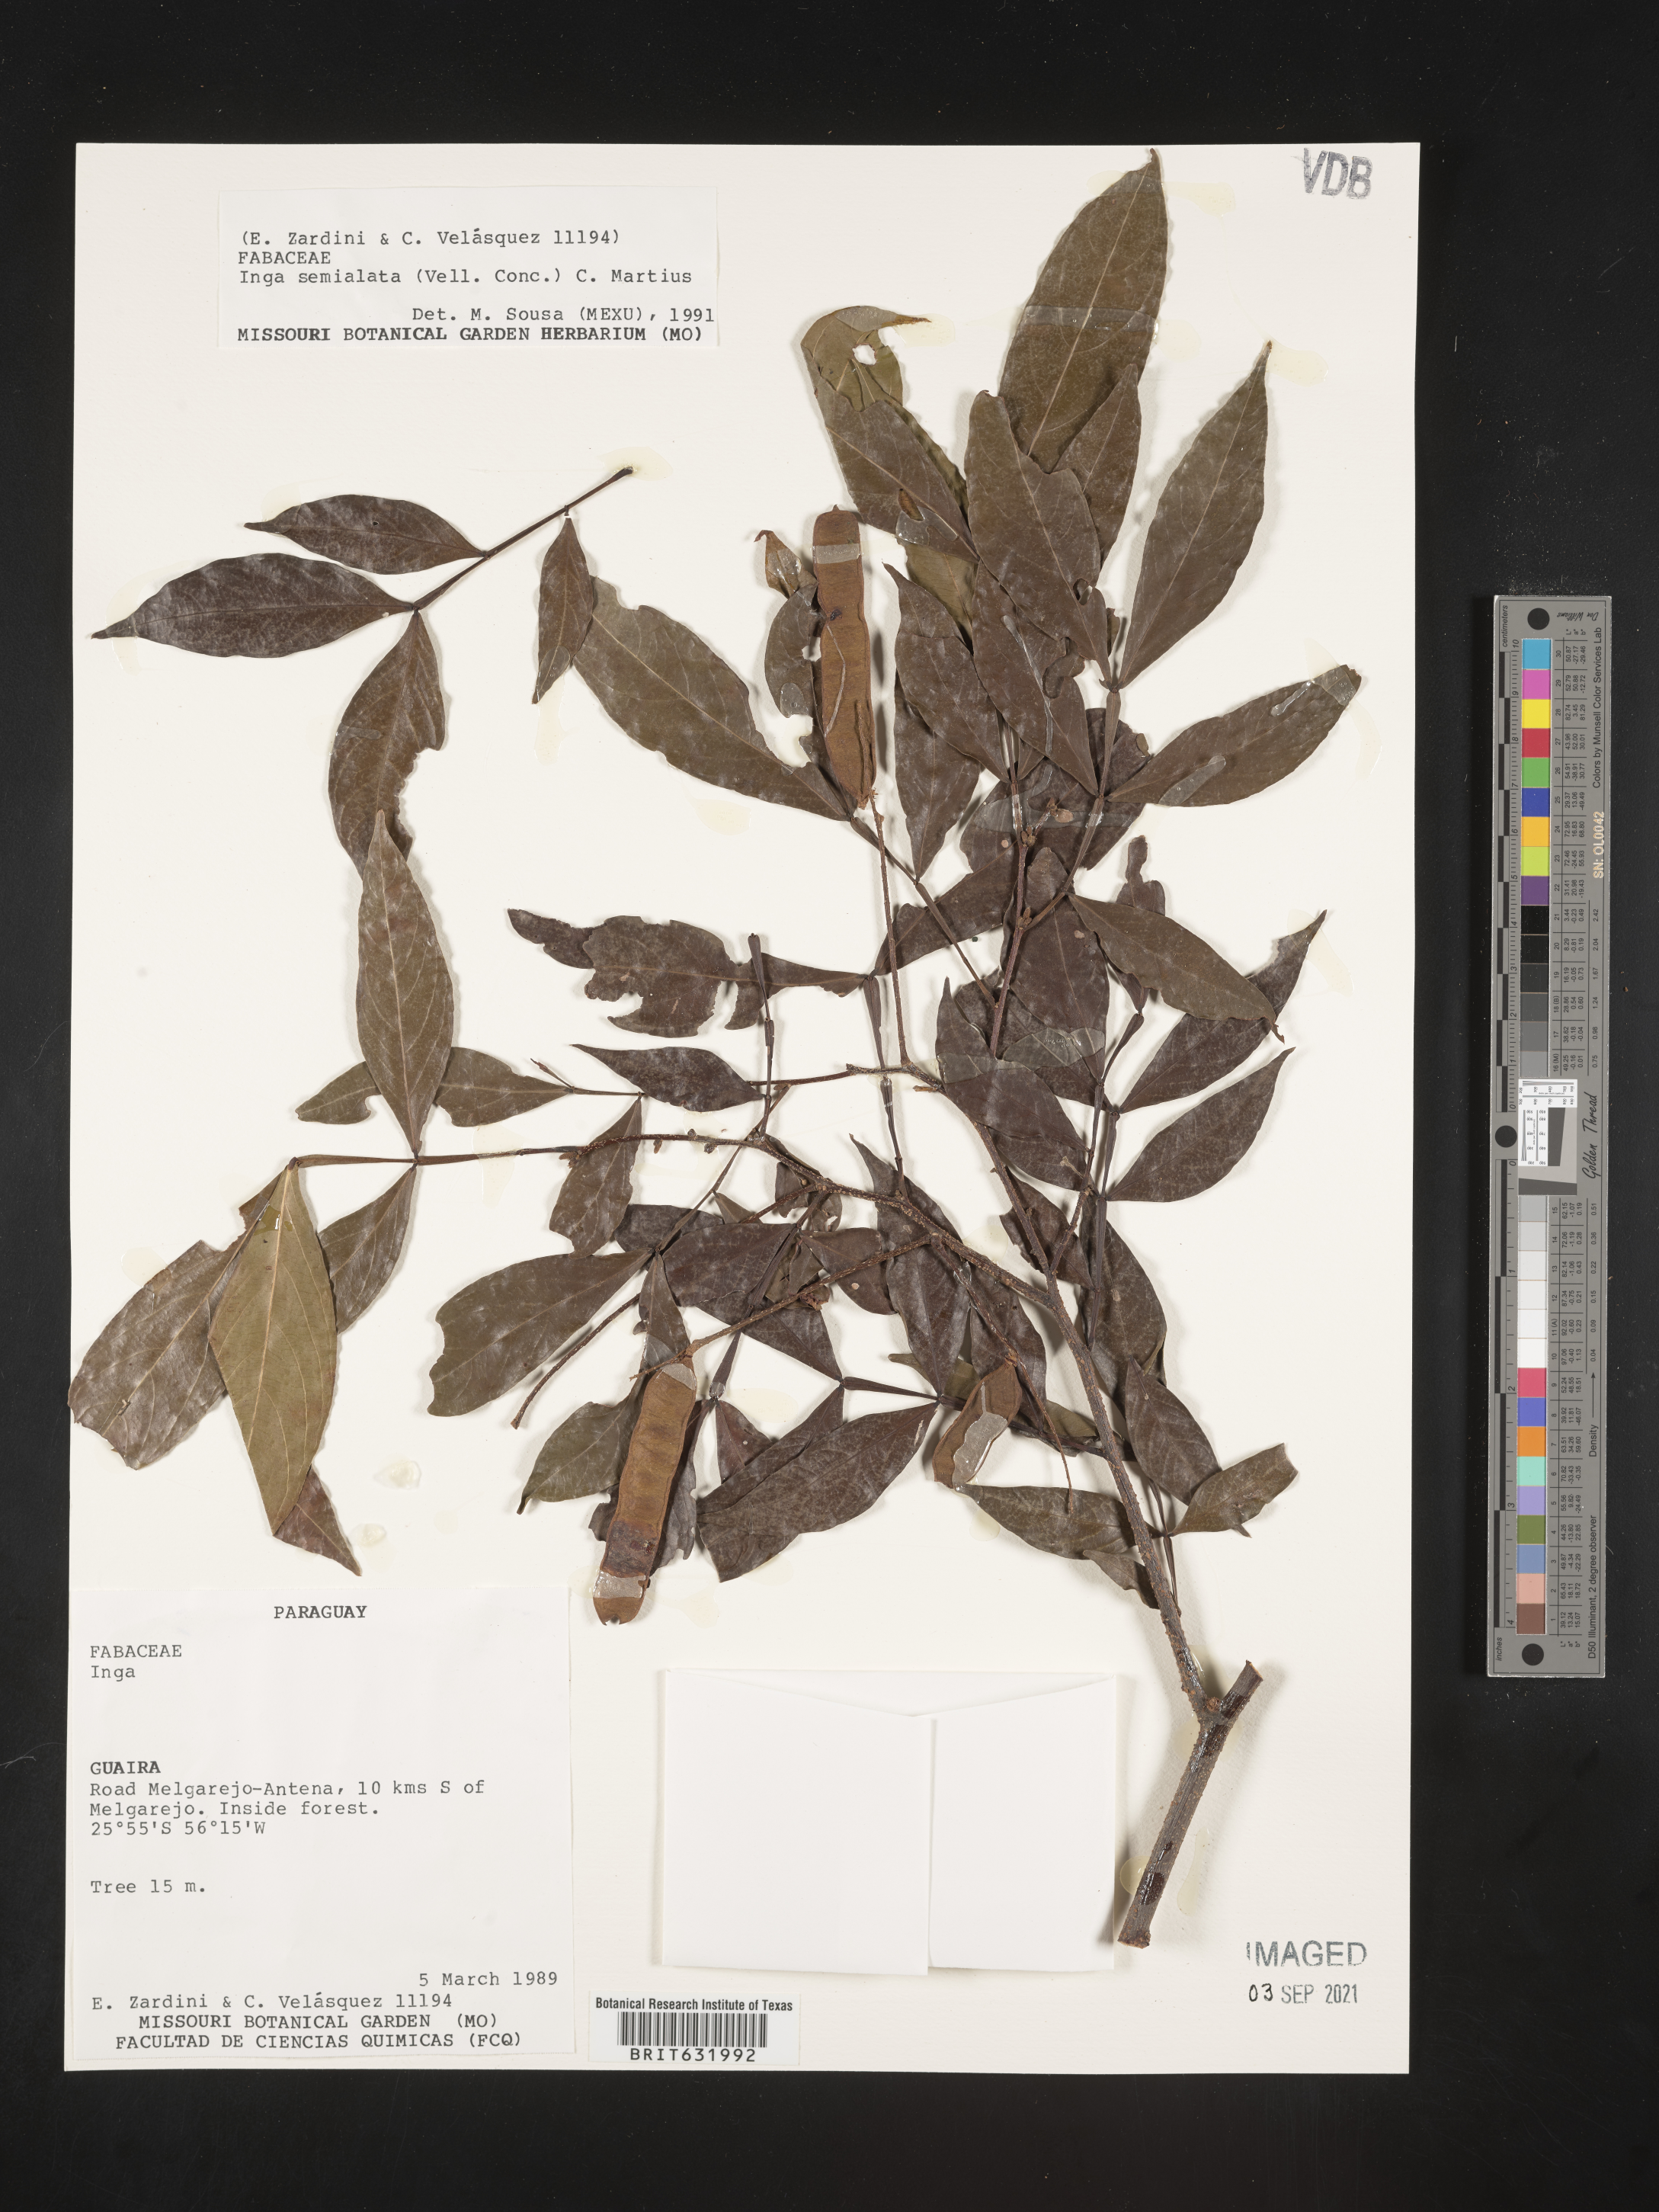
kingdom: Plantae
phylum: Tracheophyta
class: Magnoliopsida
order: Fabales
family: Fabaceae
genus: Inga
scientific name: Inga
